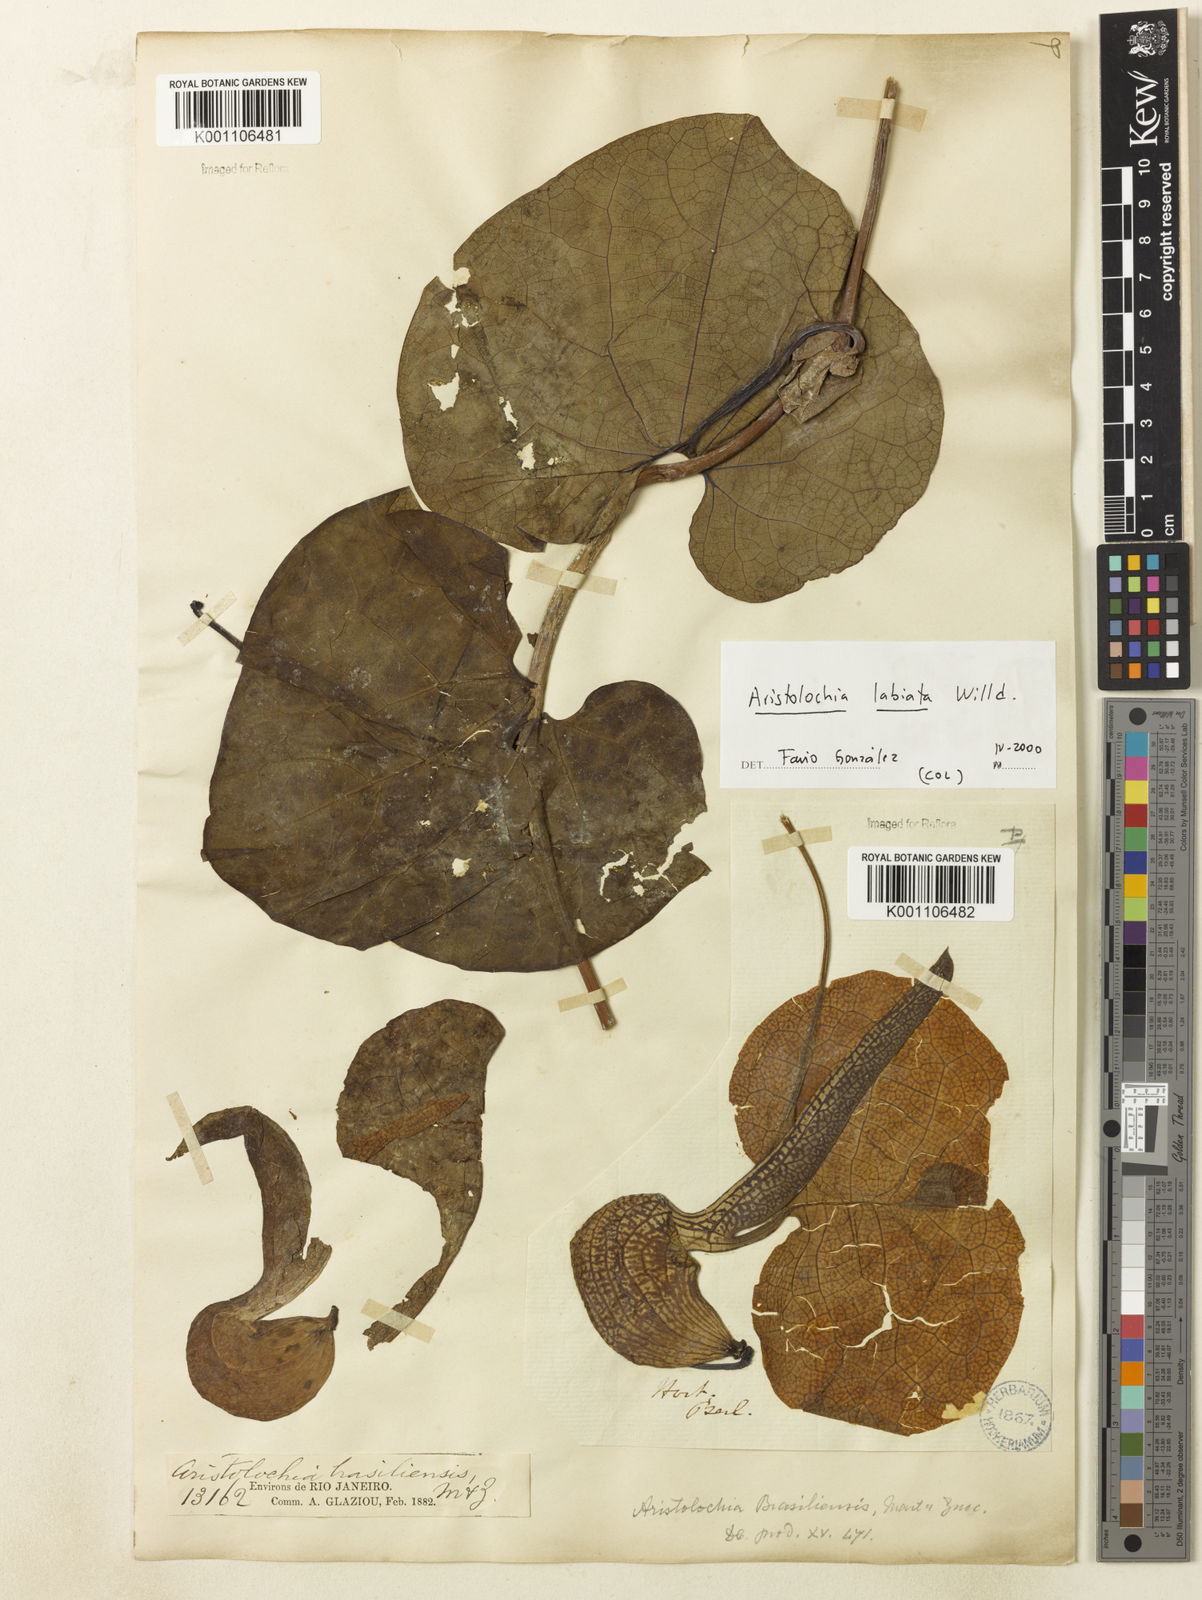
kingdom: Plantae
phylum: Tracheophyta
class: Magnoliopsida
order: Piperales
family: Aristolochiaceae
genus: Aristolochia
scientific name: Aristolochia labiata
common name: Mottled dutchman's pipe
